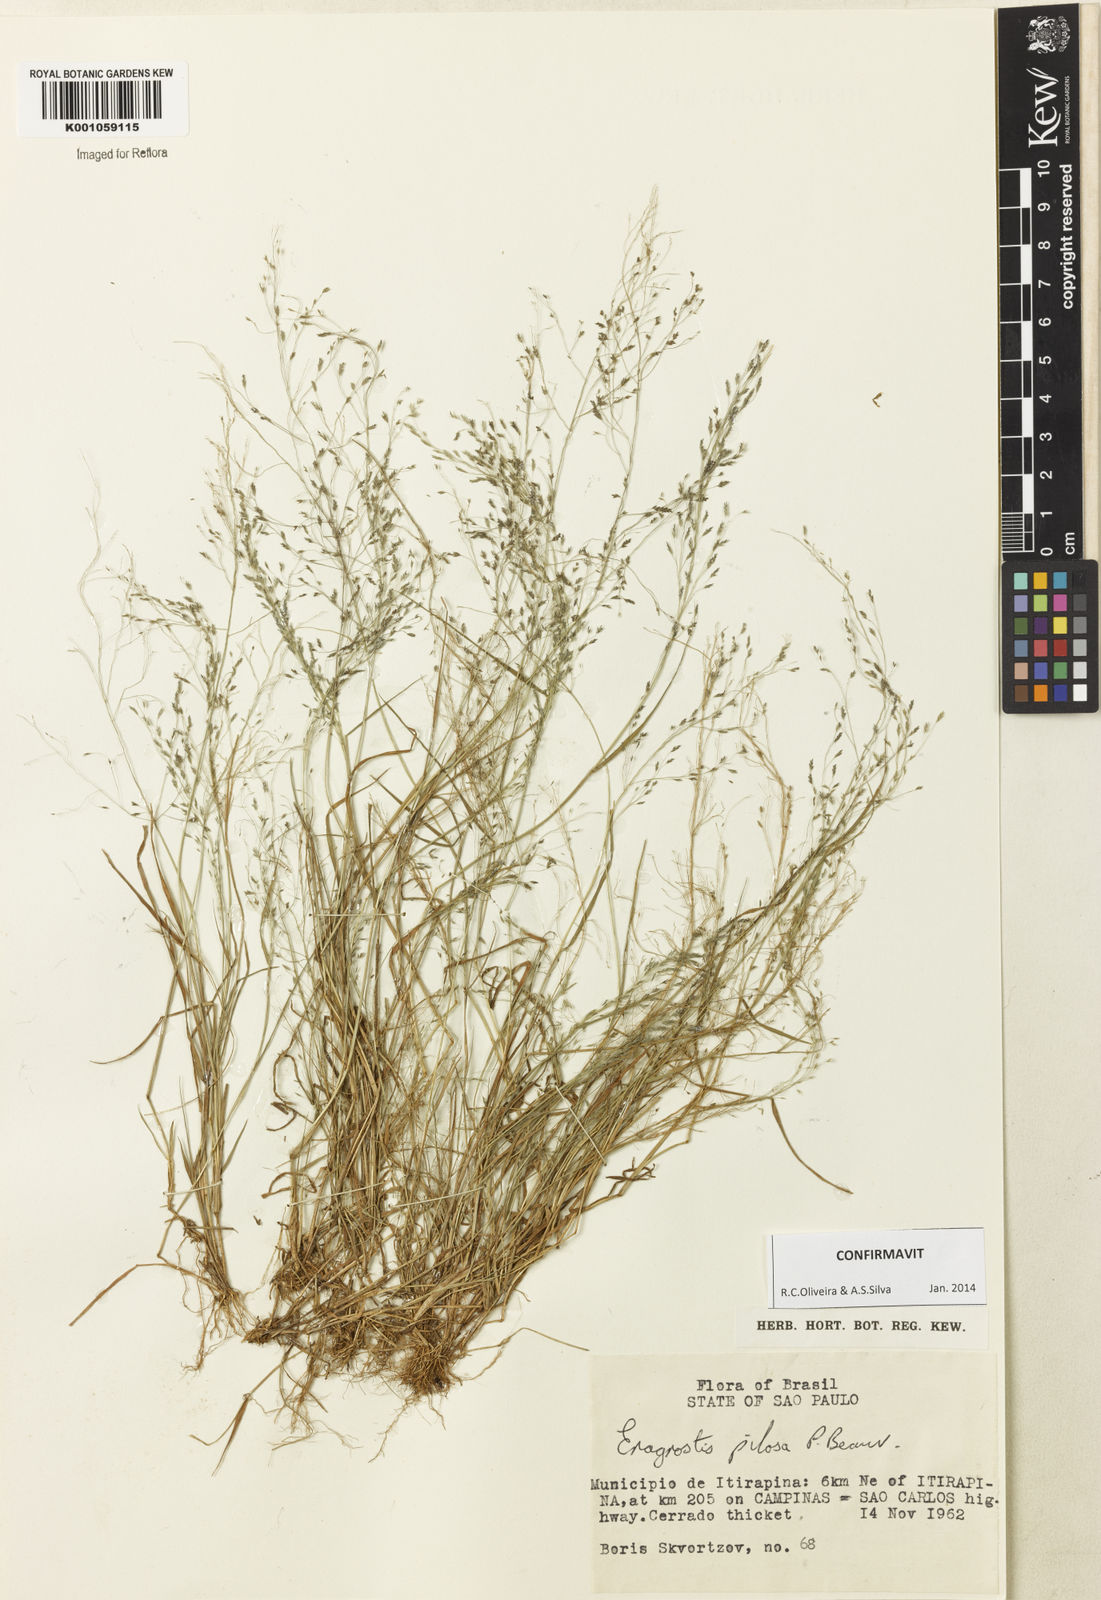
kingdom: Plantae
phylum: Tracheophyta
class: Liliopsida
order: Poales
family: Poaceae
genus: Eragrostis
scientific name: Eragrostis pilosa
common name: Indian lovegrass
